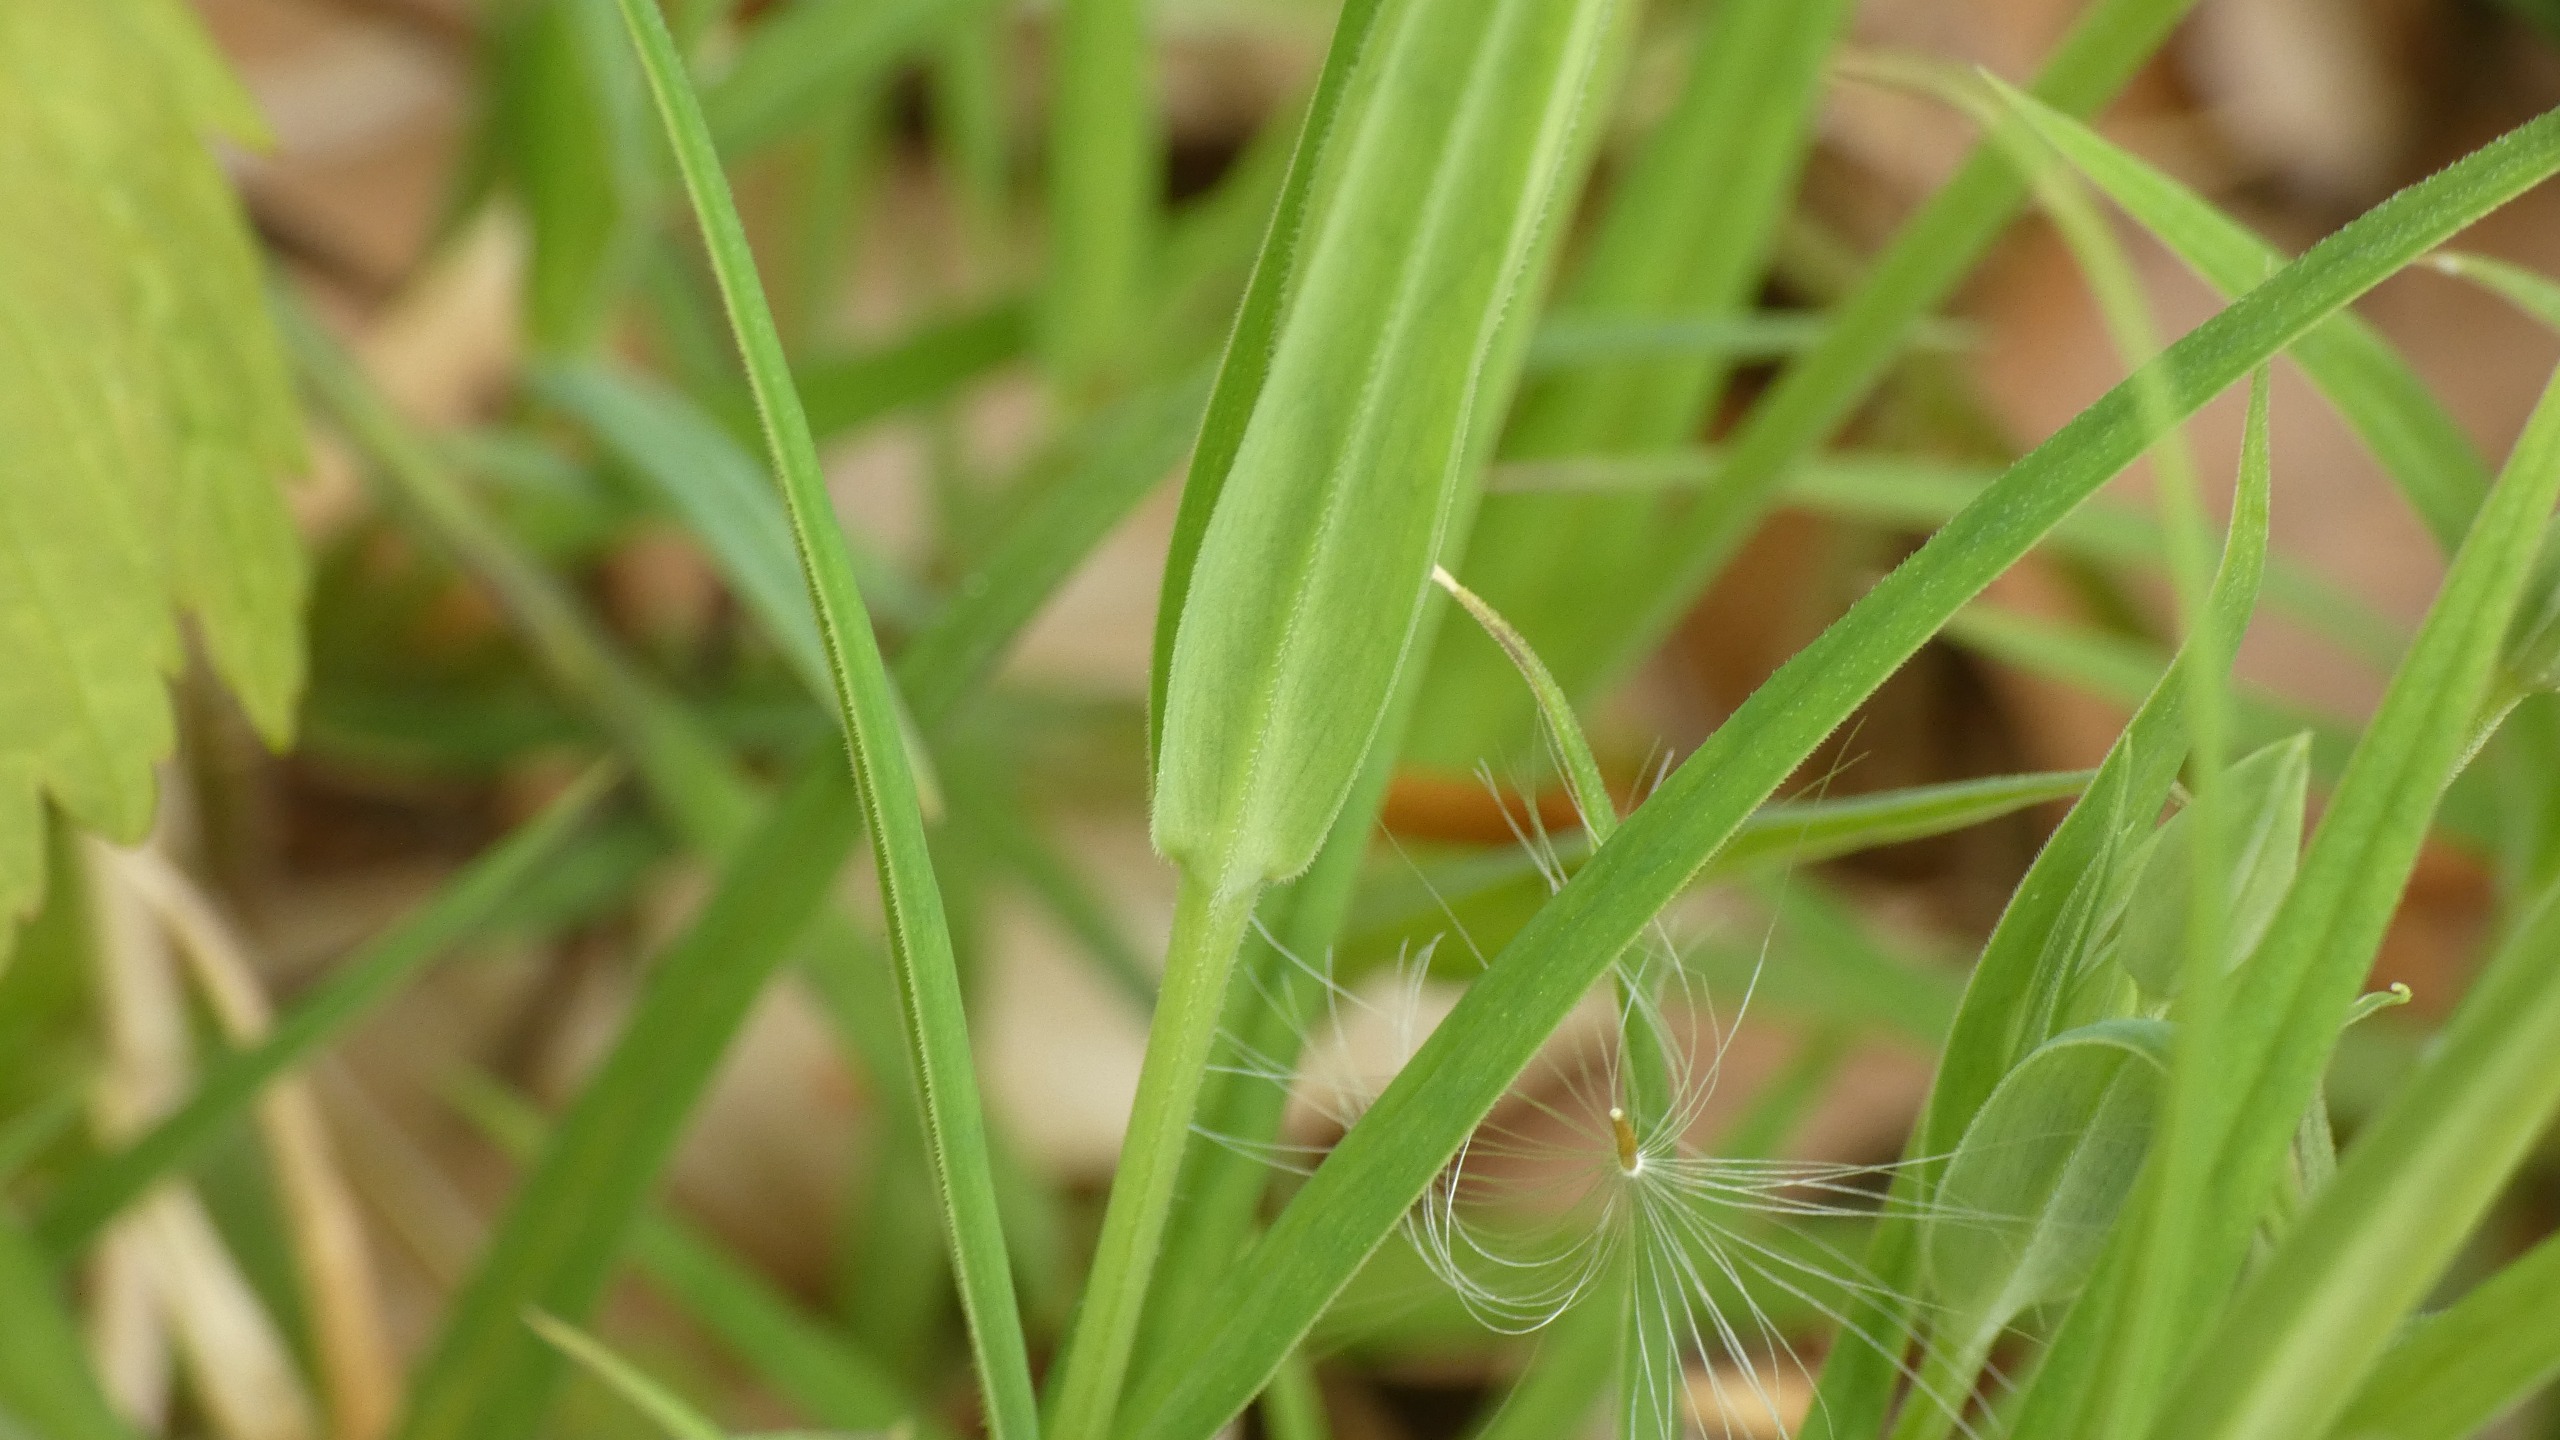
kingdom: Plantae
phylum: Tracheophyta
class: Magnoliopsida
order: Caryophyllales
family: Caryophyllaceae
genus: Rabelera
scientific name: Rabelera holostea
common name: Stor fladstjerne
